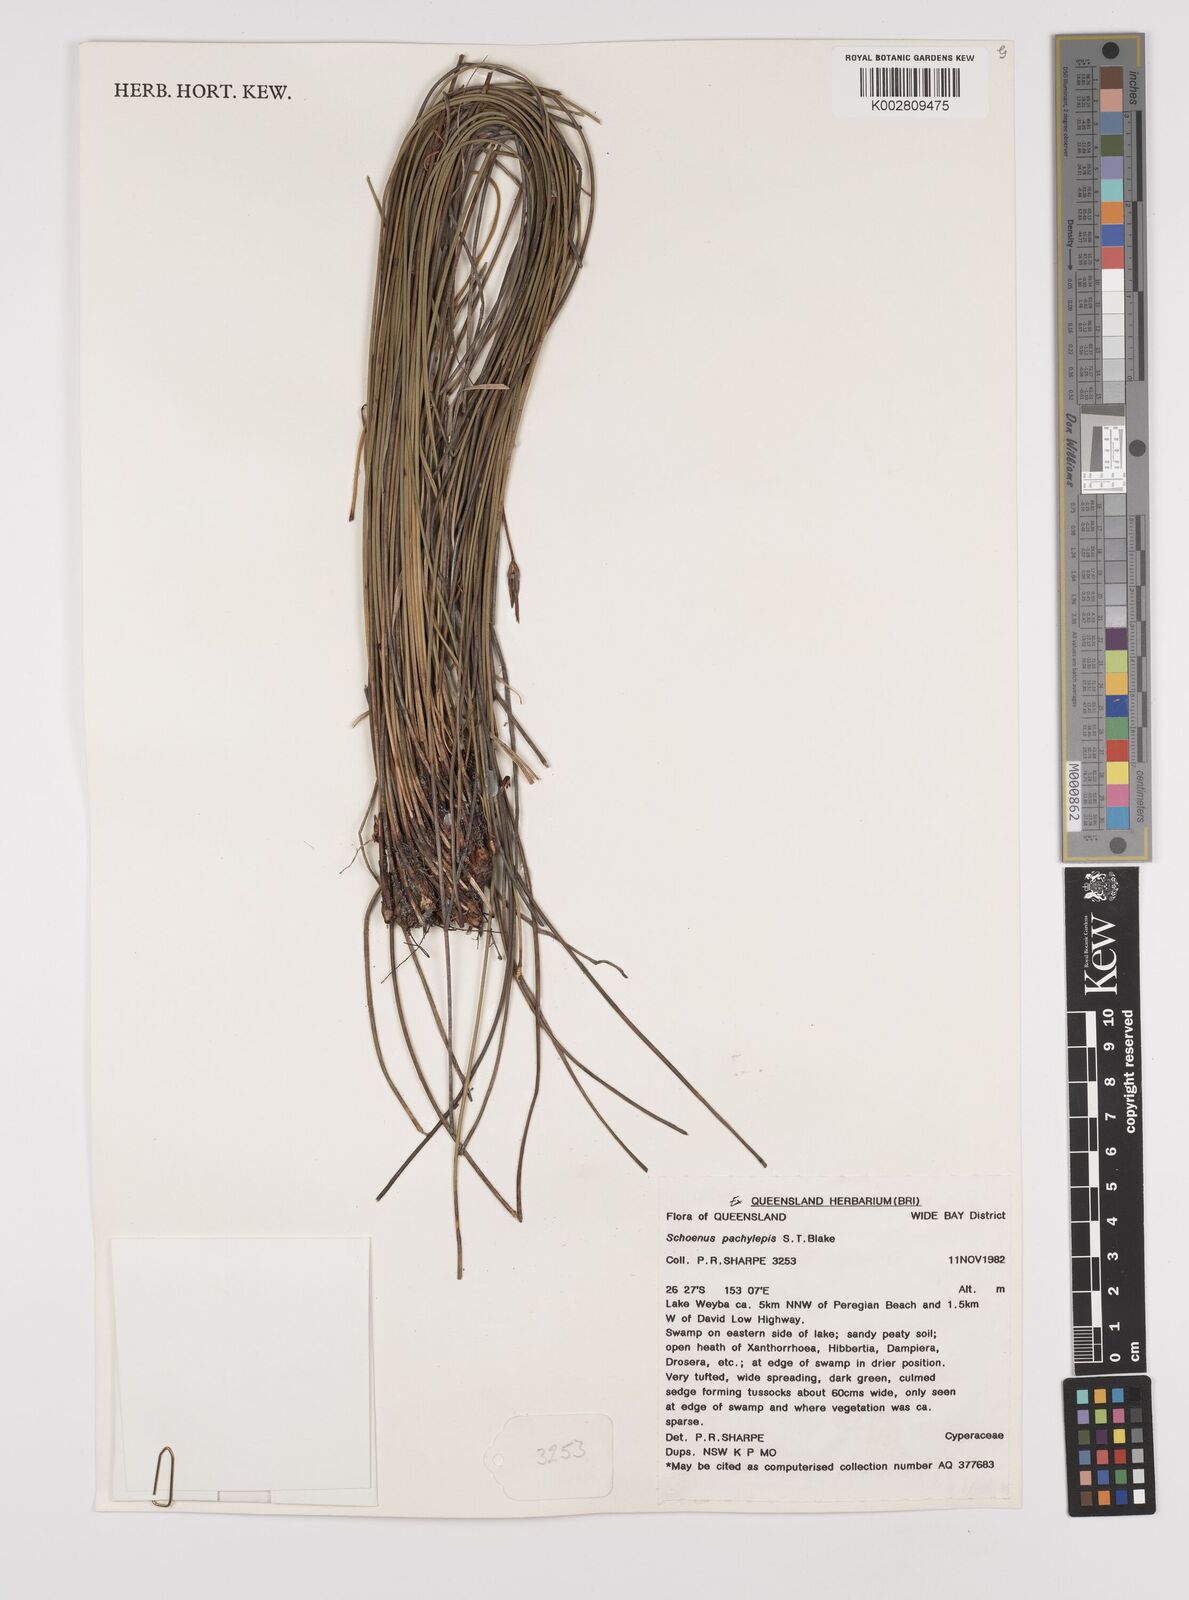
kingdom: Plantae
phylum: Tracheophyta
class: Liliopsida
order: Poales
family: Cyperaceae
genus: Schoenus
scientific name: Schoenus lepidosperma
